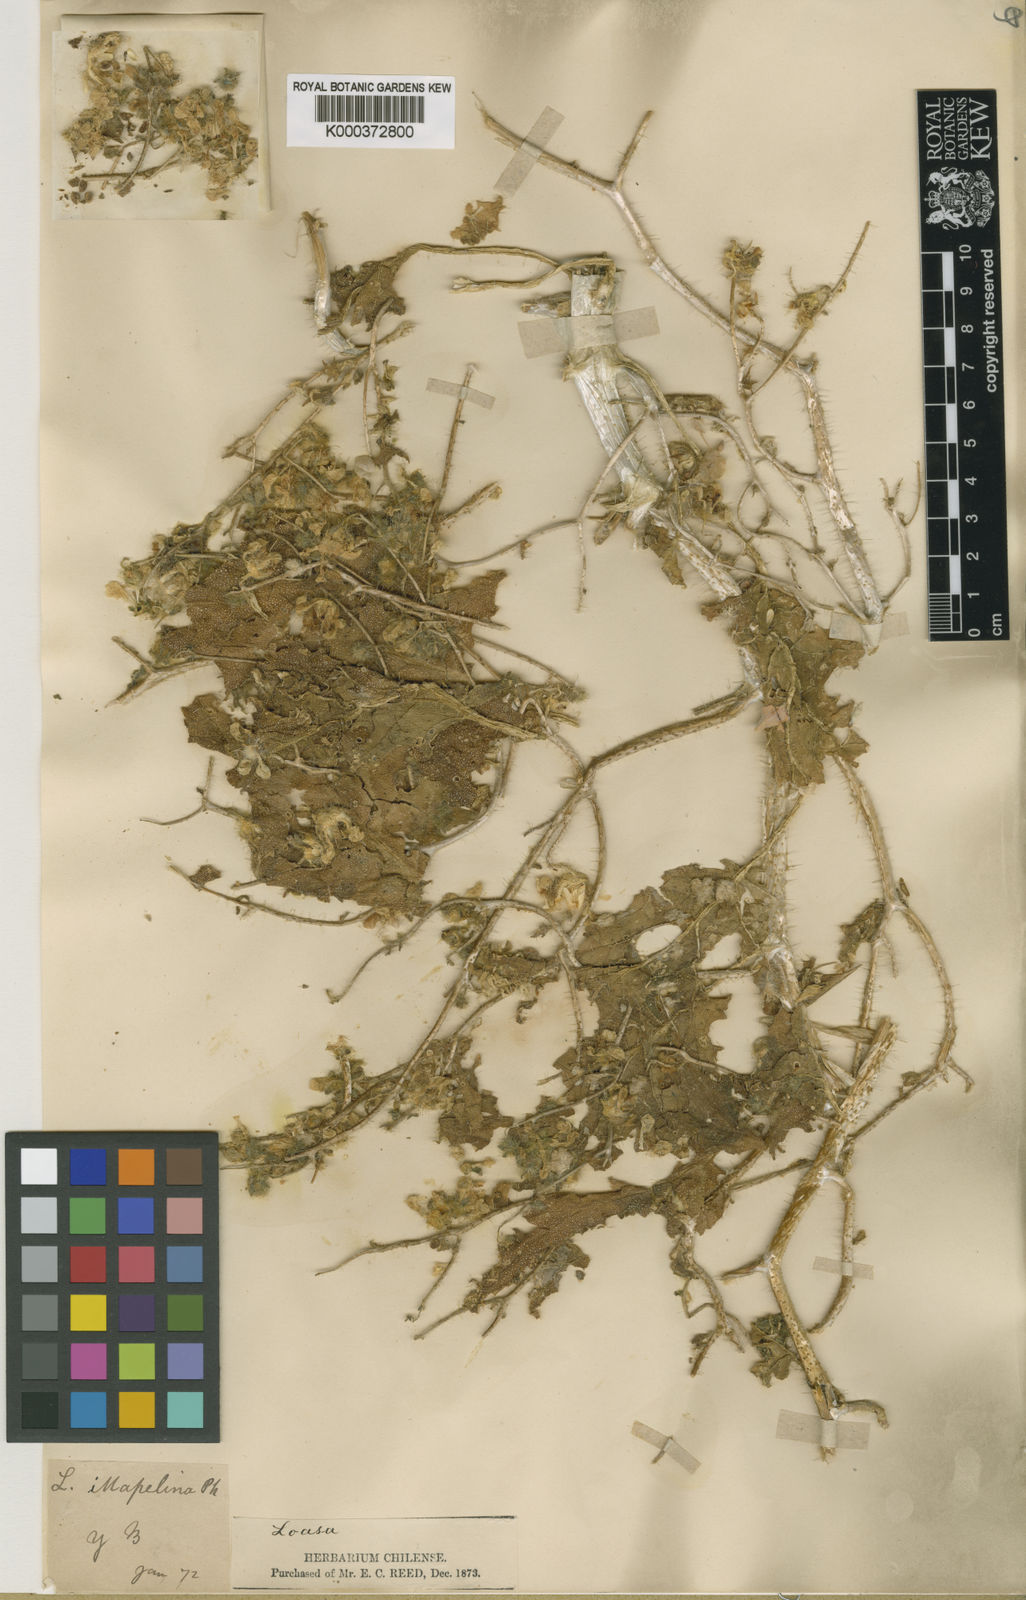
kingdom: Plantae
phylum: Tracheophyta
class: Magnoliopsida
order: Cornales
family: Loasaceae
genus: Loasa
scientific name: Loasa illapelina
